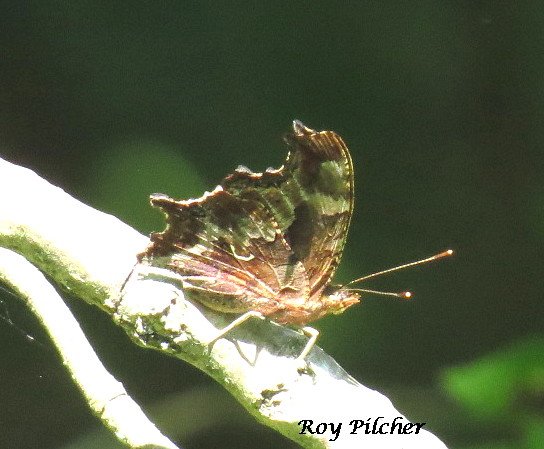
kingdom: Animalia
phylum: Arthropoda
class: Insecta
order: Lepidoptera
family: Nymphalidae
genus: Polygonia
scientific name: Polygonia comma
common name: Eastern Comma
